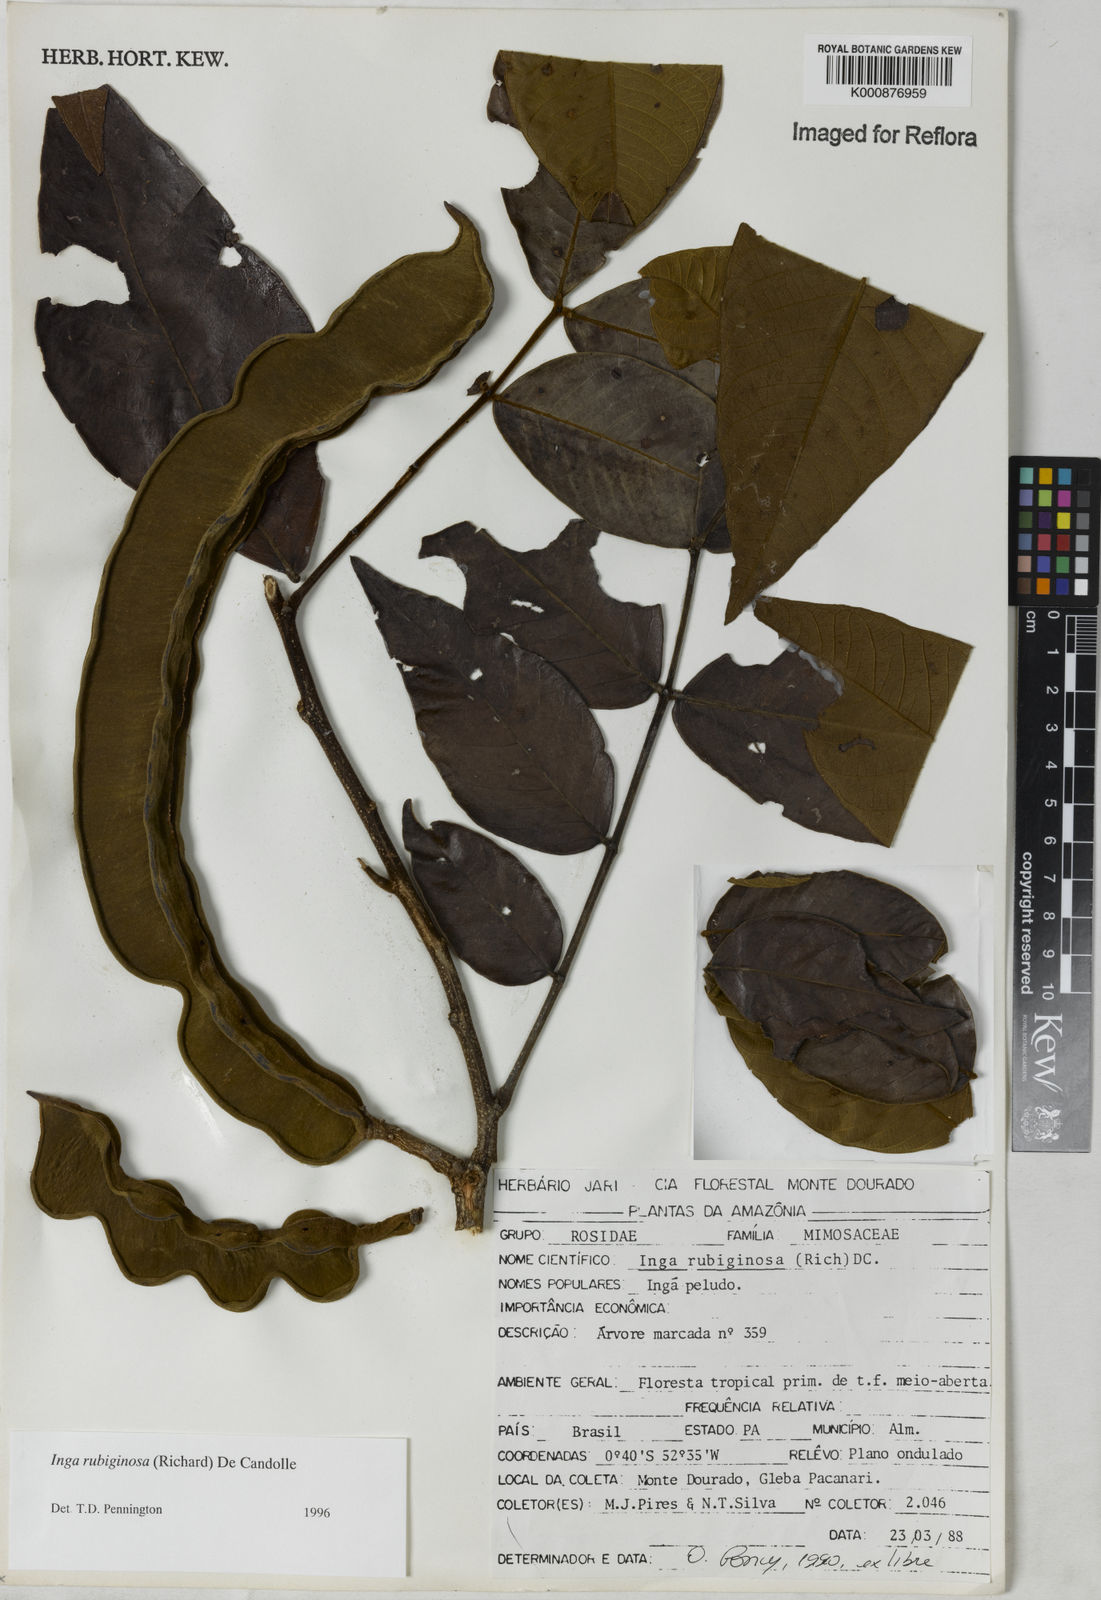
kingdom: Plantae
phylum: Tracheophyta
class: Magnoliopsida
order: Fabales
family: Fabaceae
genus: Inga
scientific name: Inga rubiginosa
